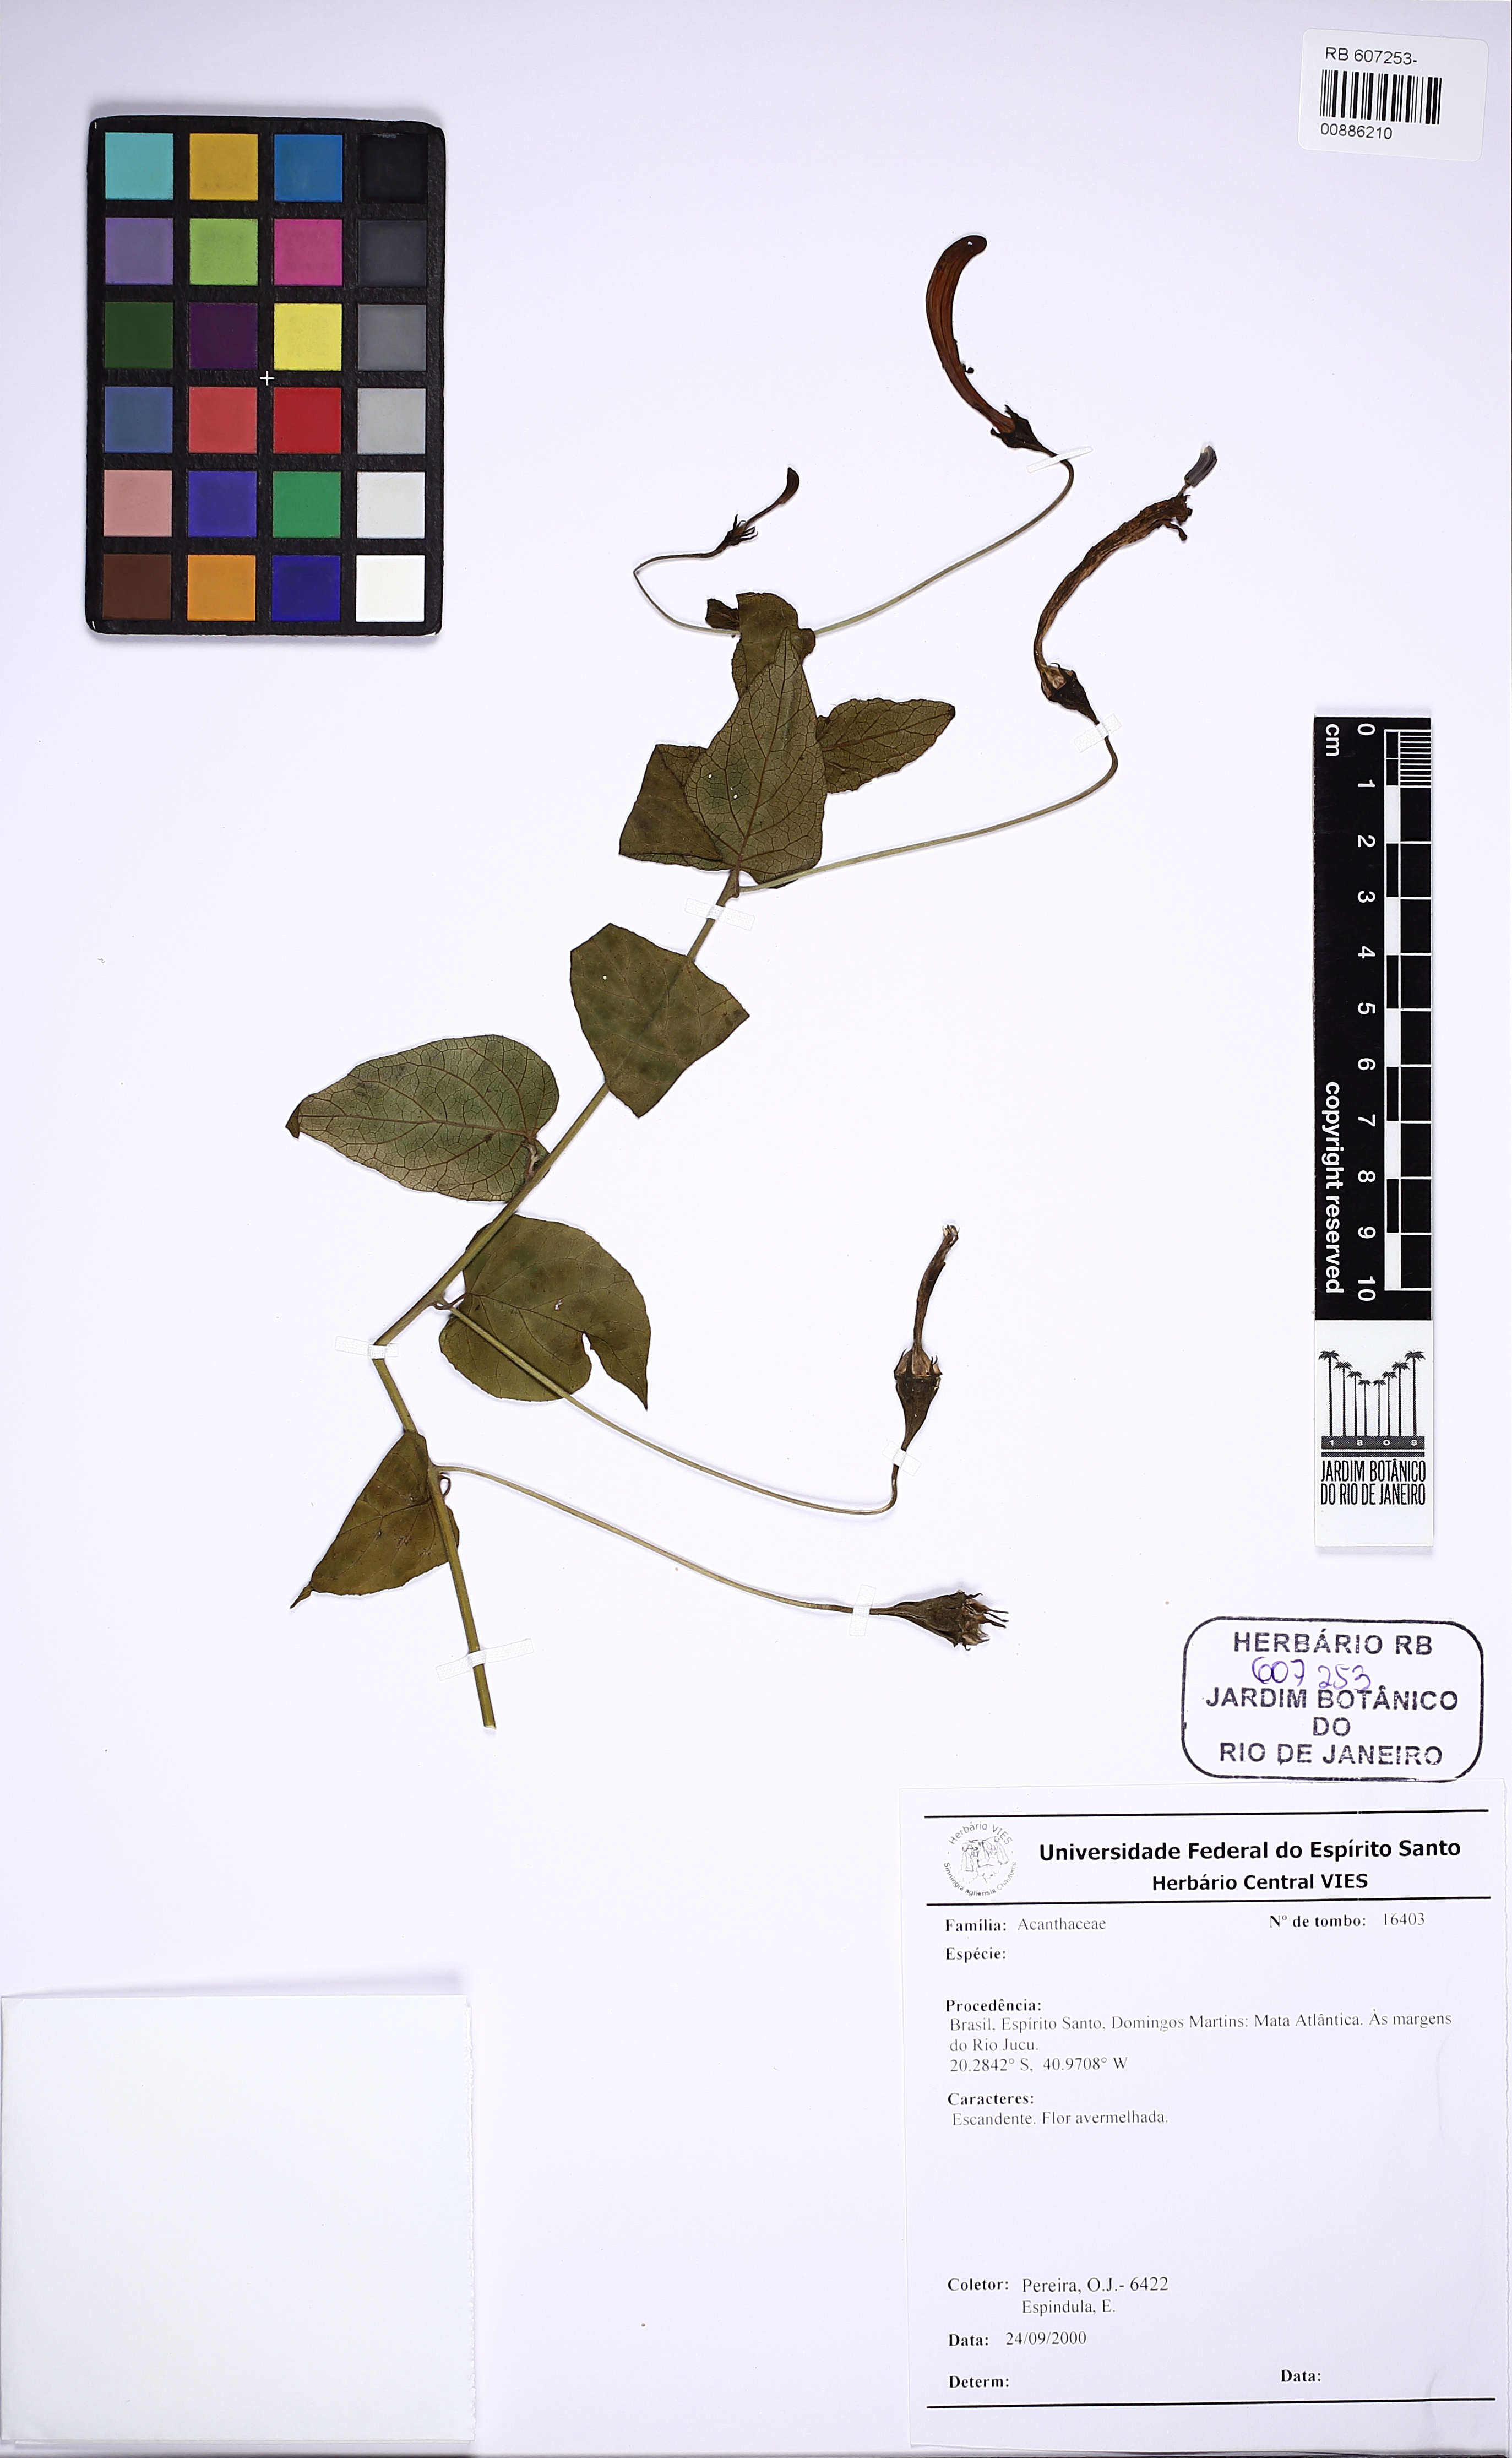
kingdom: Plantae
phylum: Tracheophyta
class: Magnoliopsida
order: Asterales
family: Campanulaceae
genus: Siphocampylus
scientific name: Siphocampylus longipedunculatus
